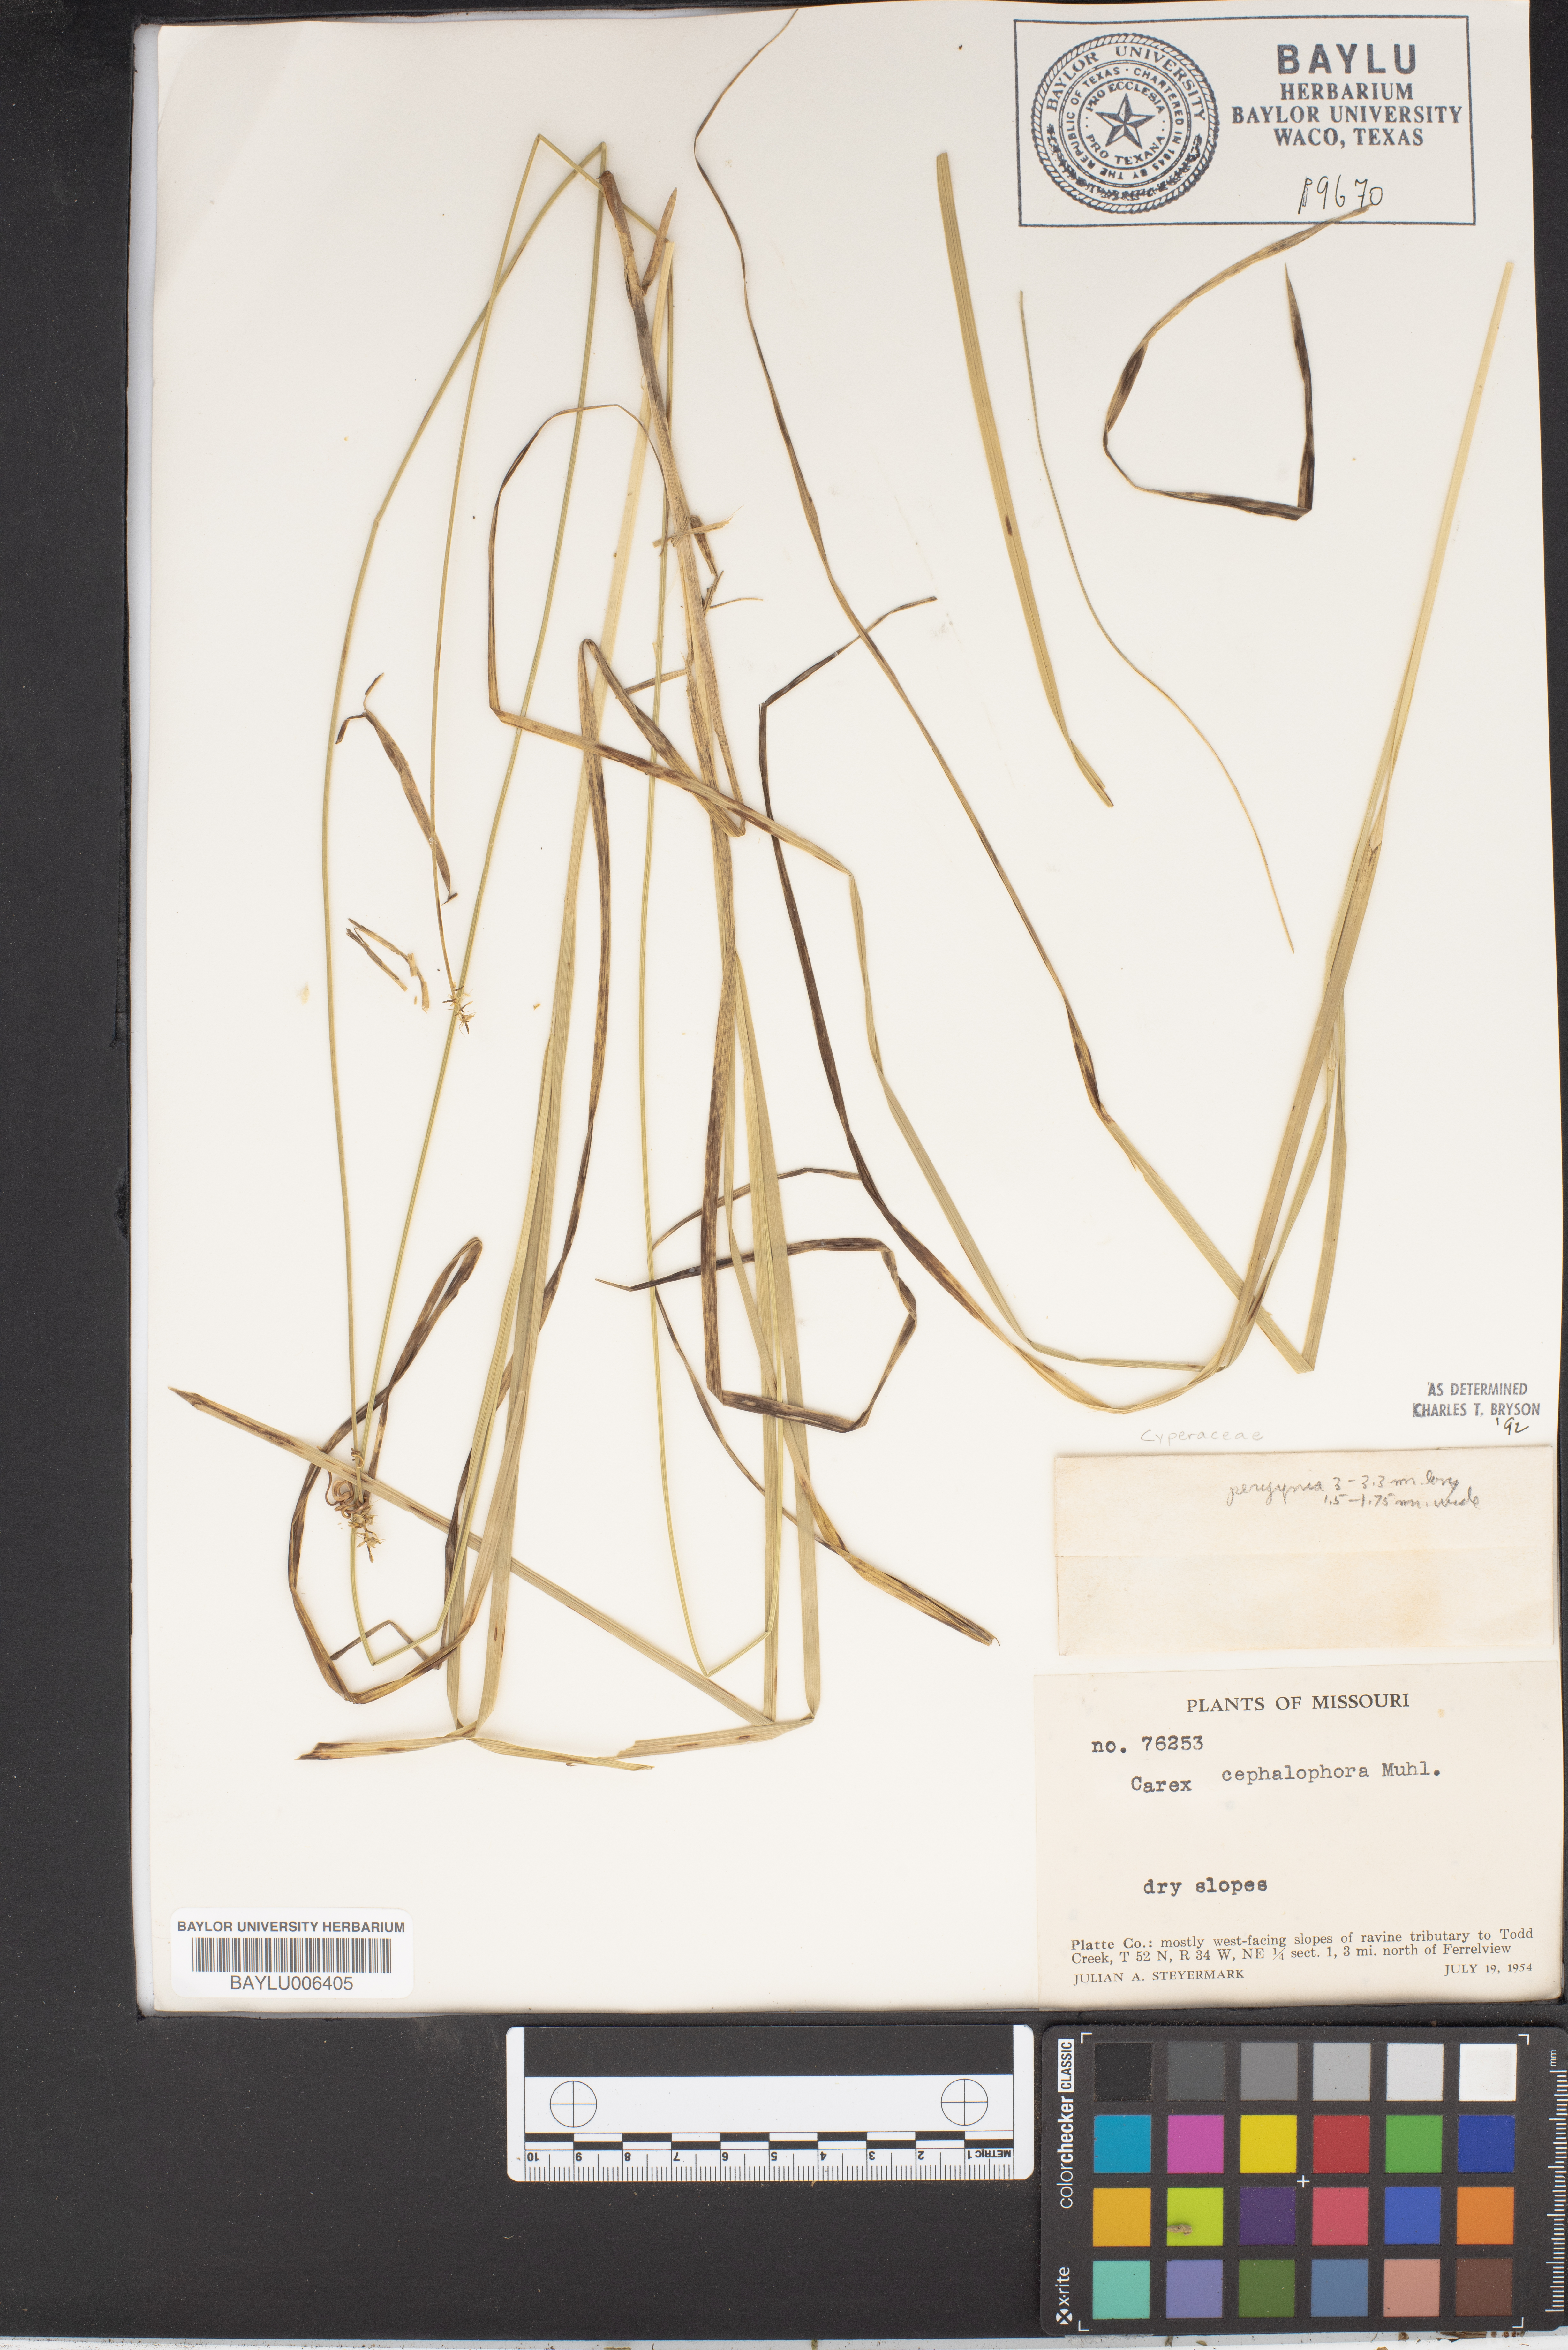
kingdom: Plantae
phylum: Tracheophyta
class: Liliopsida
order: Poales
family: Cyperaceae
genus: Carex
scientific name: Carex cephalophora
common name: Oval-headed sedge
